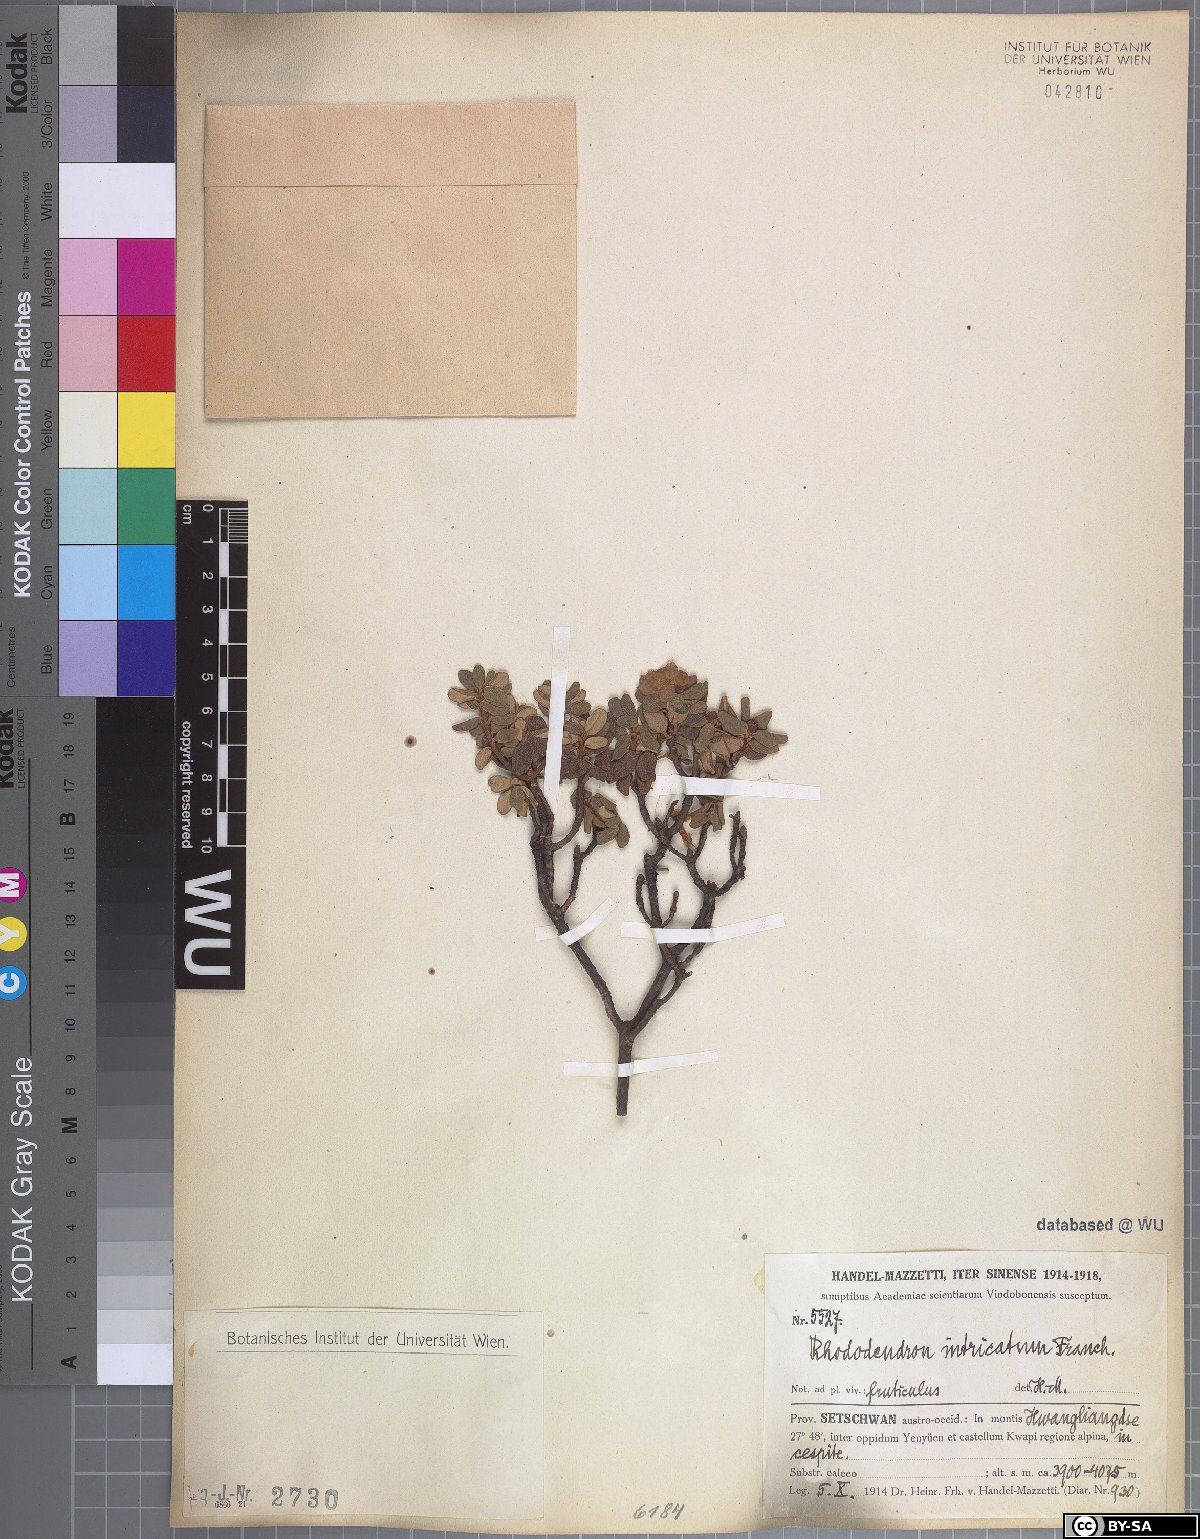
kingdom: Plantae
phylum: Tracheophyta
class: Magnoliopsida
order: Ericales
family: Ericaceae
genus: Rhododendron
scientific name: Rhododendron intricatum
